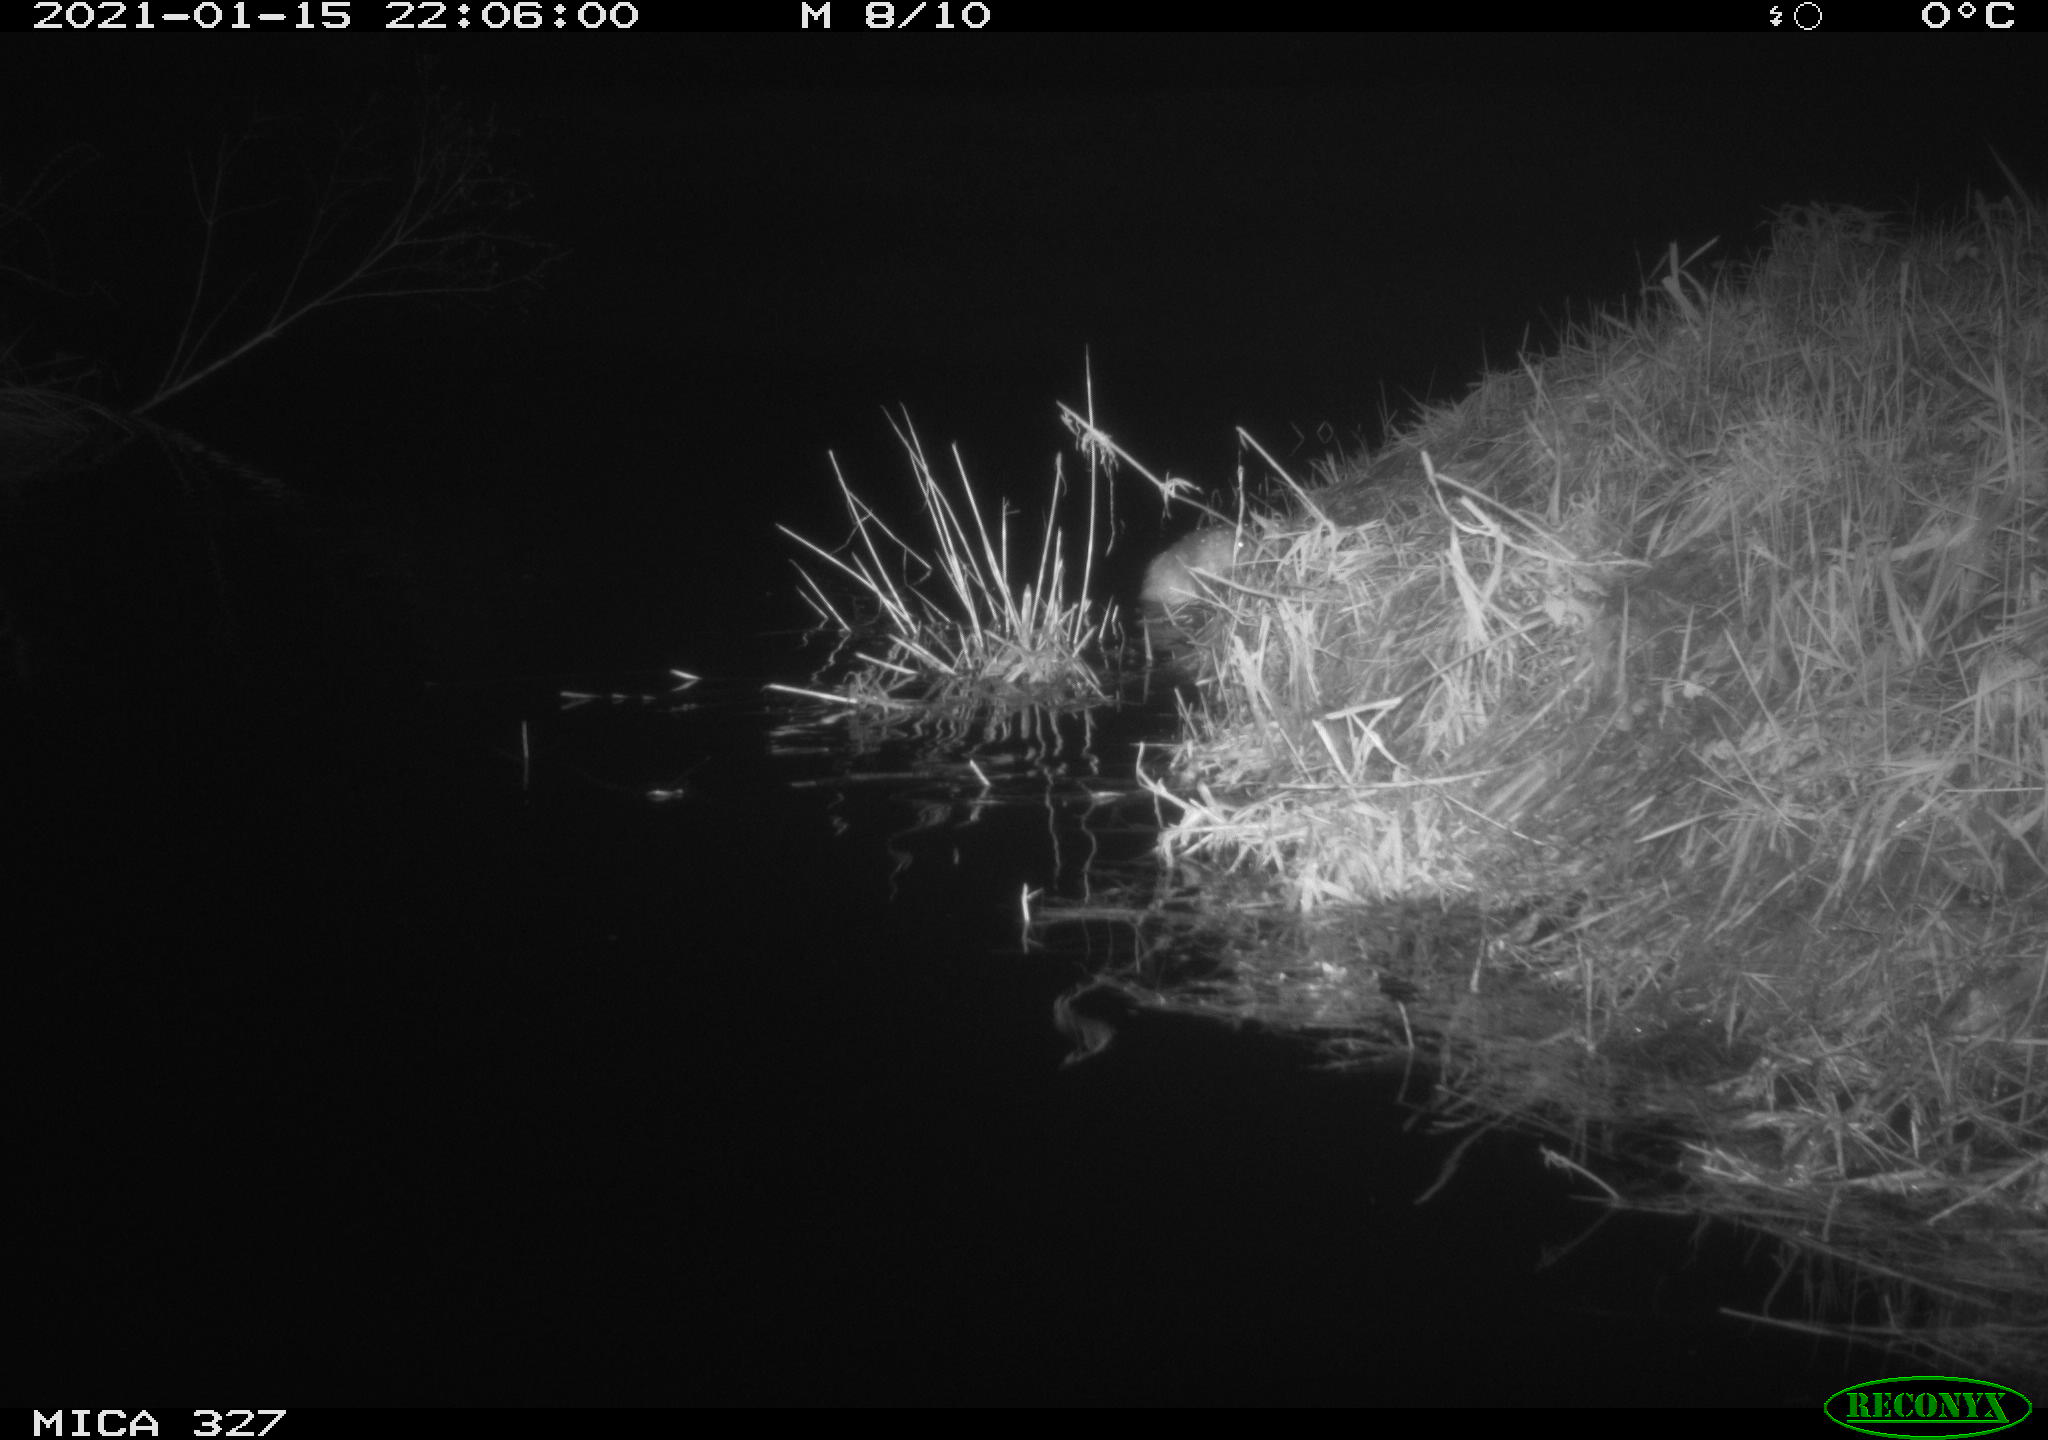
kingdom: Animalia
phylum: Chordata
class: Mammalia
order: Rodentia
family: Cricetidae
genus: Ondatra
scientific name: Ondatra zibethicus
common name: Muskrat
